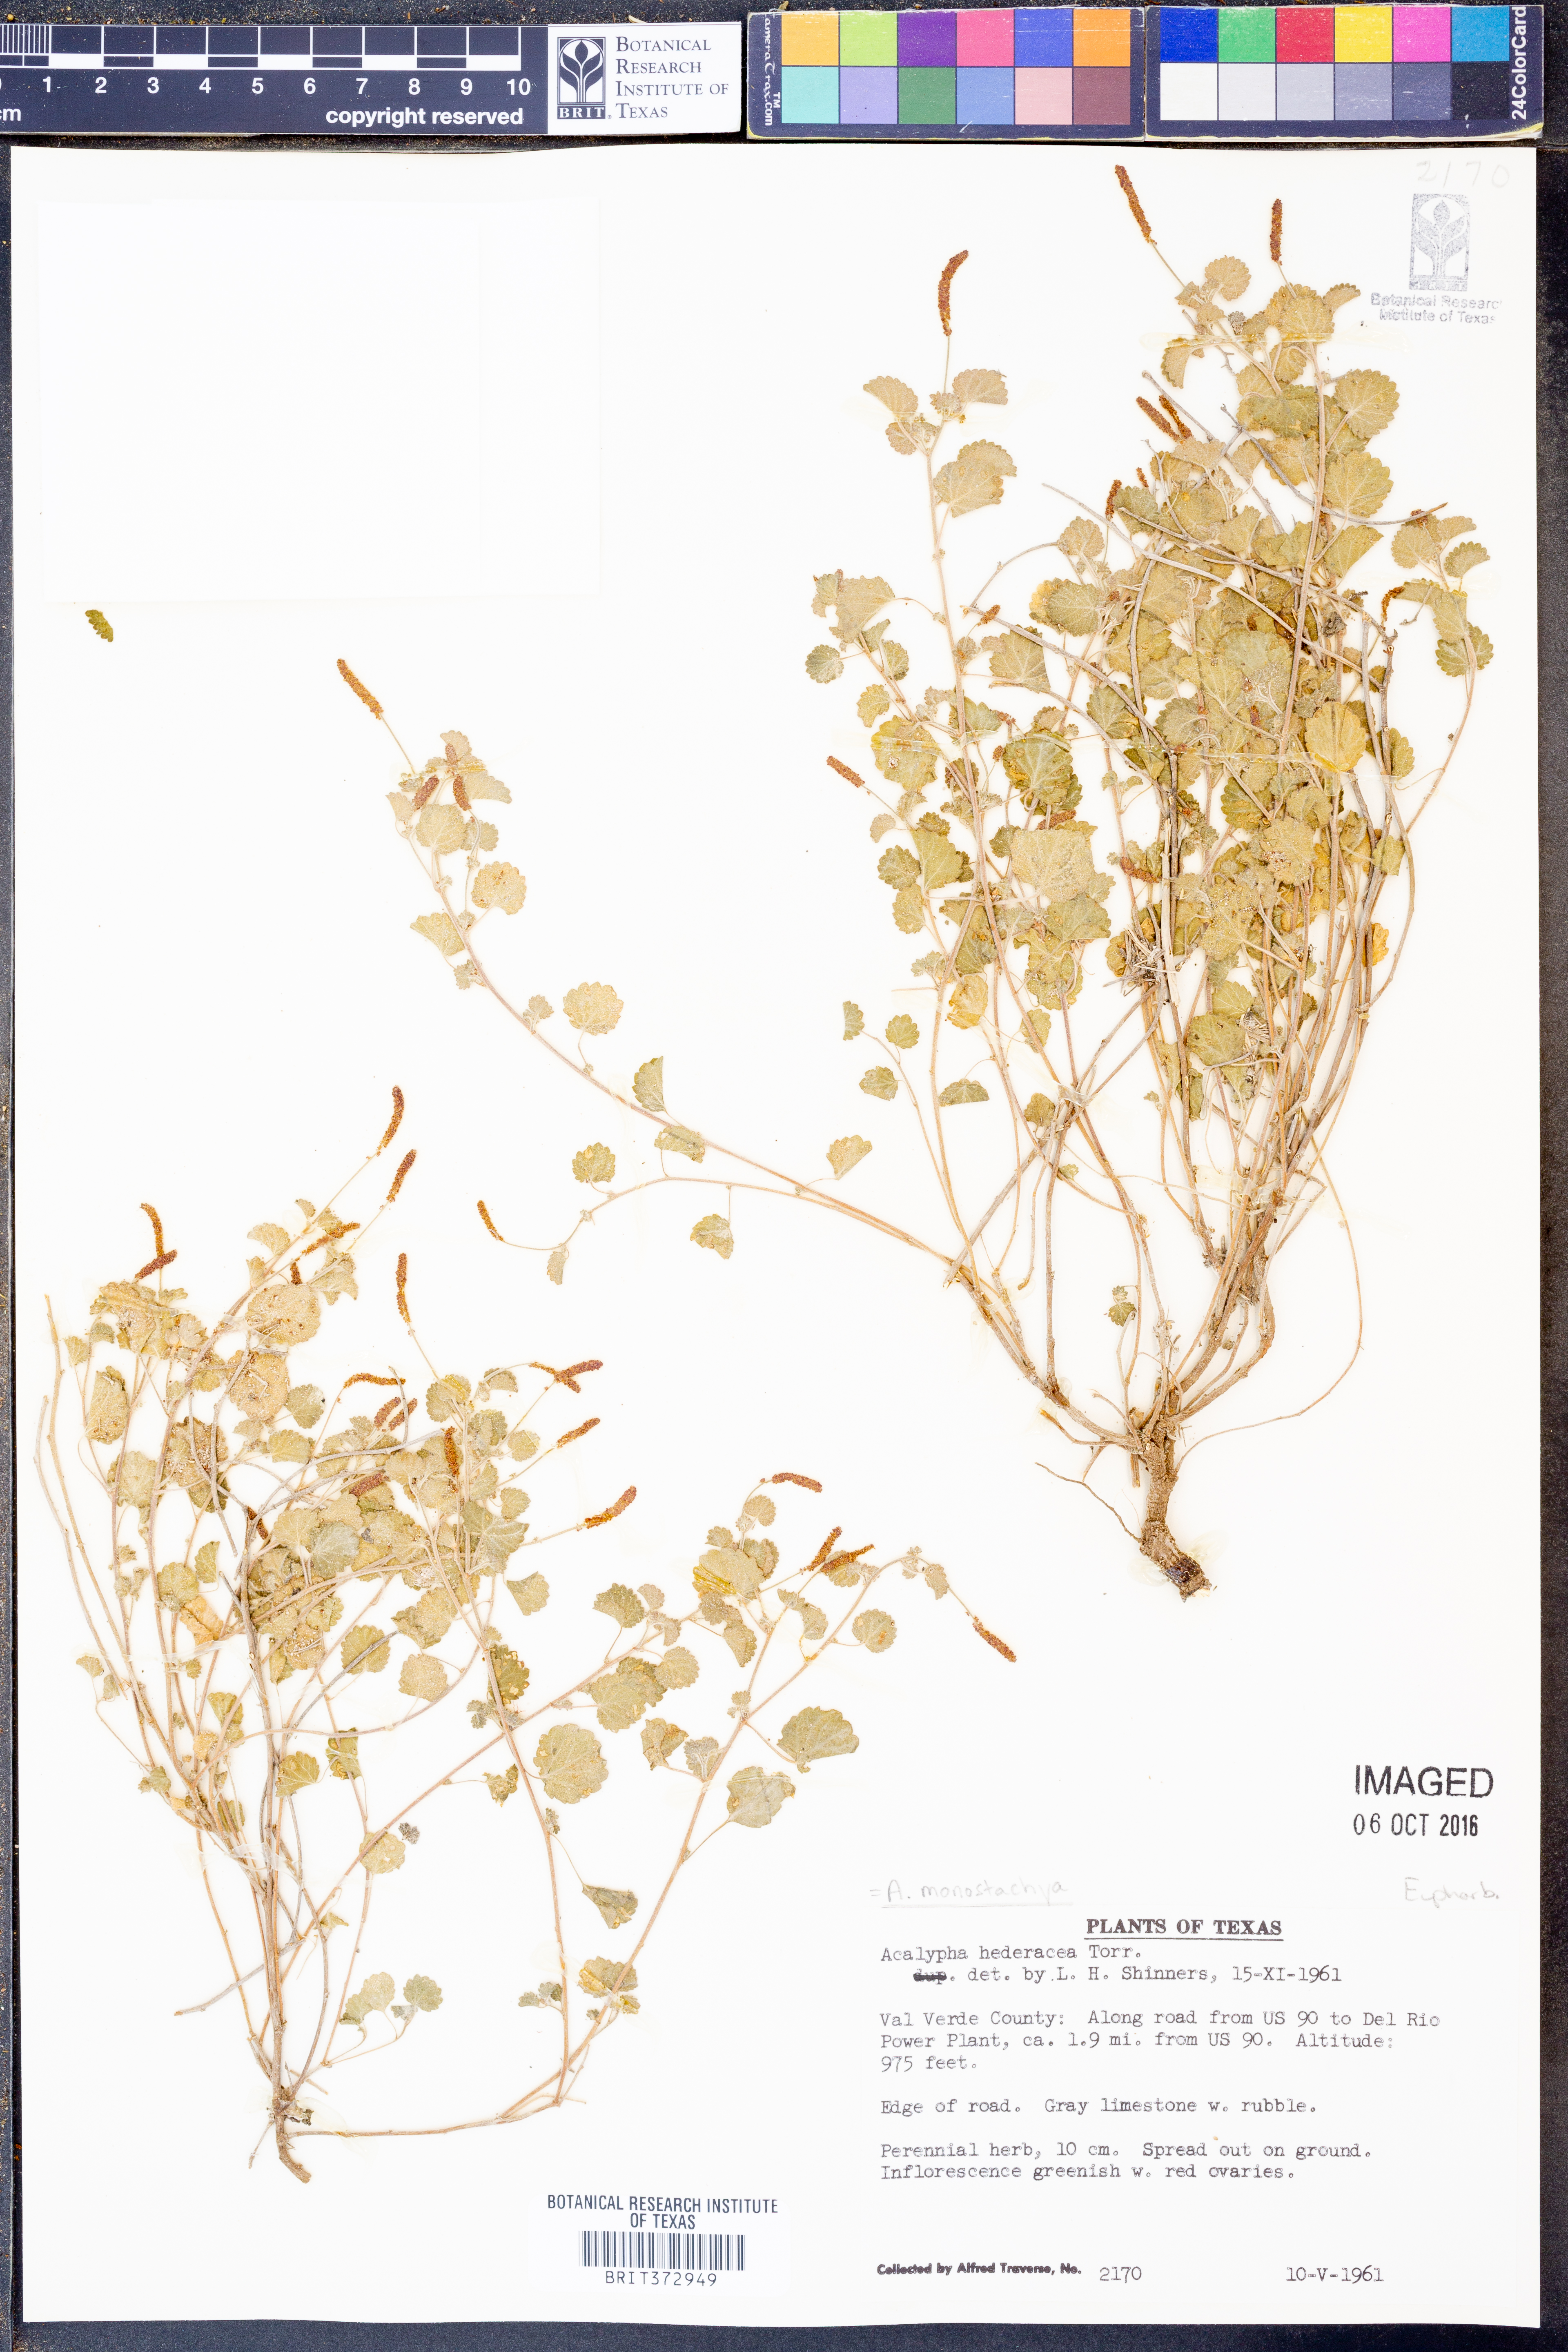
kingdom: Plantae
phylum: Tracheophyta
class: Magnoliopsida
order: Malpighiales
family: Euphorbiaceae
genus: Acalypha
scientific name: Acalypha monostachya
